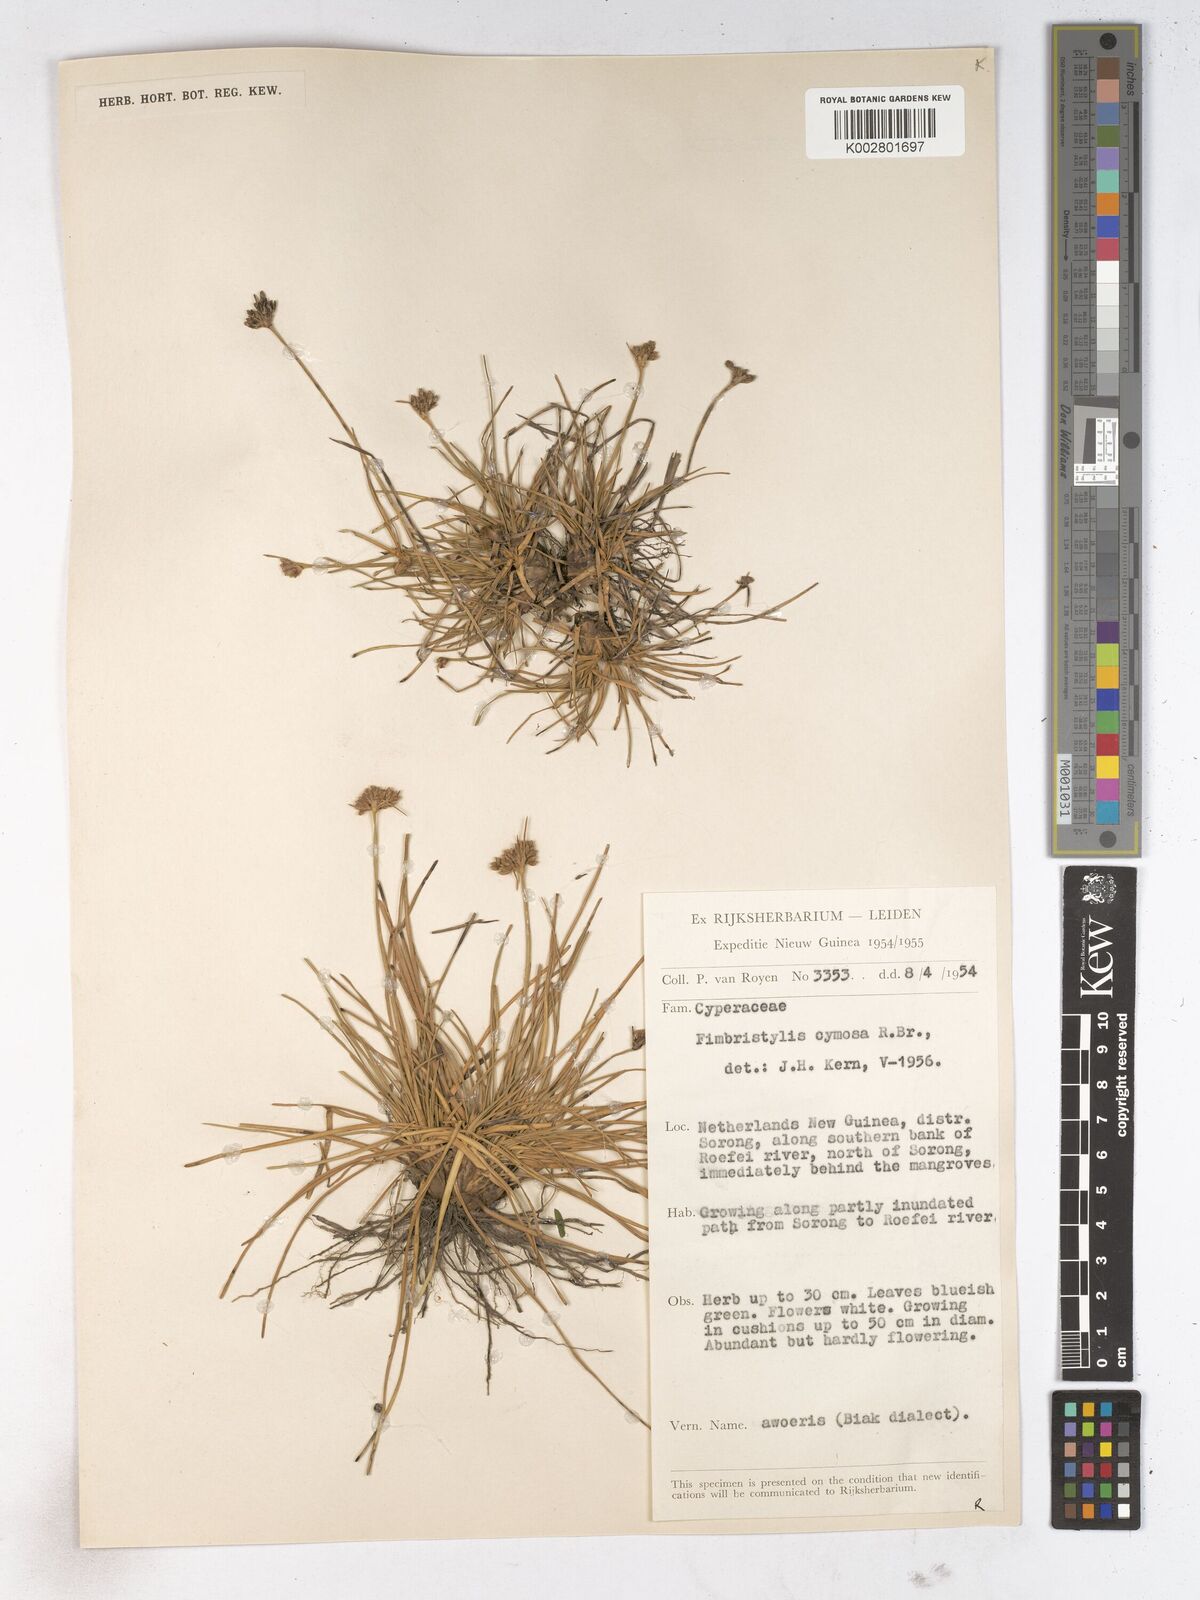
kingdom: Plantae
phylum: Tracheophyta
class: Liliopsida
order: Poales
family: Cyperaceae
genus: Fimbristylis
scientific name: Fimbristylis cymosa
